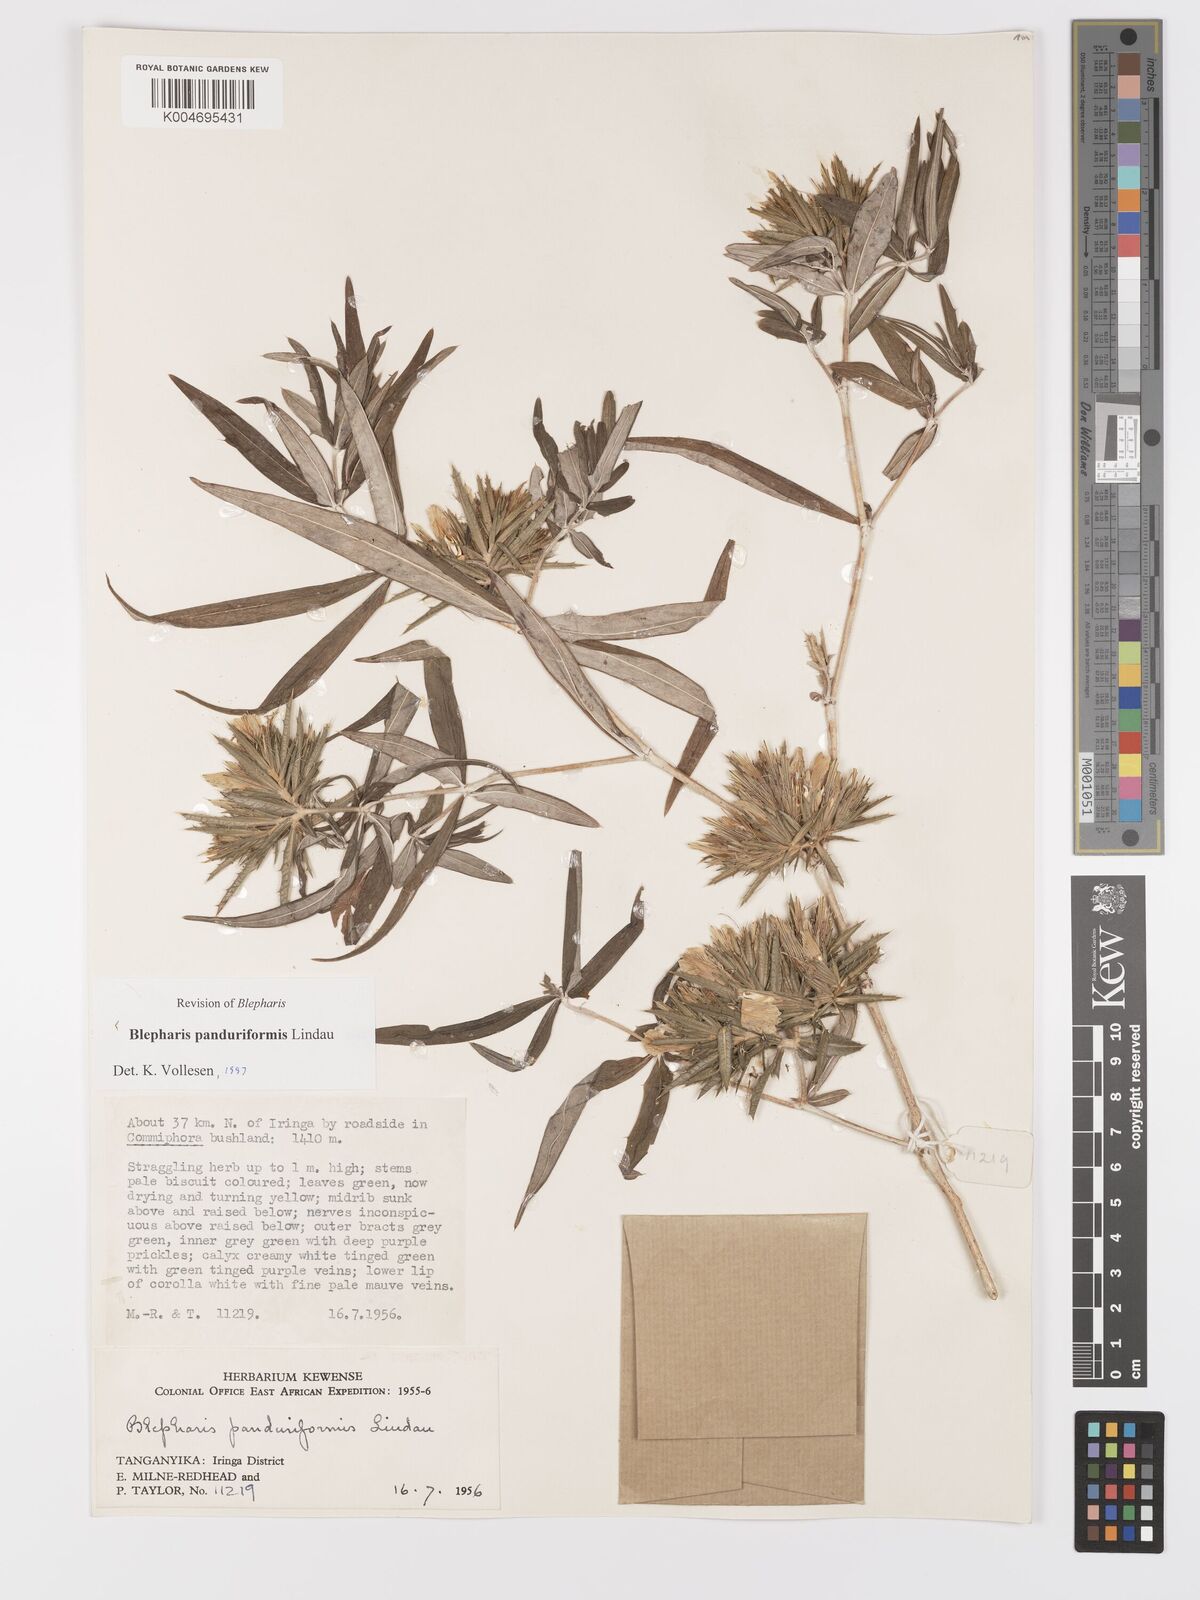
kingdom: Plantae
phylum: Tracheophyta
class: Magnoliopsida
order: Lamiales
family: Acanthaceae
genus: Blepharis
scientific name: Blepharis panduriformis
